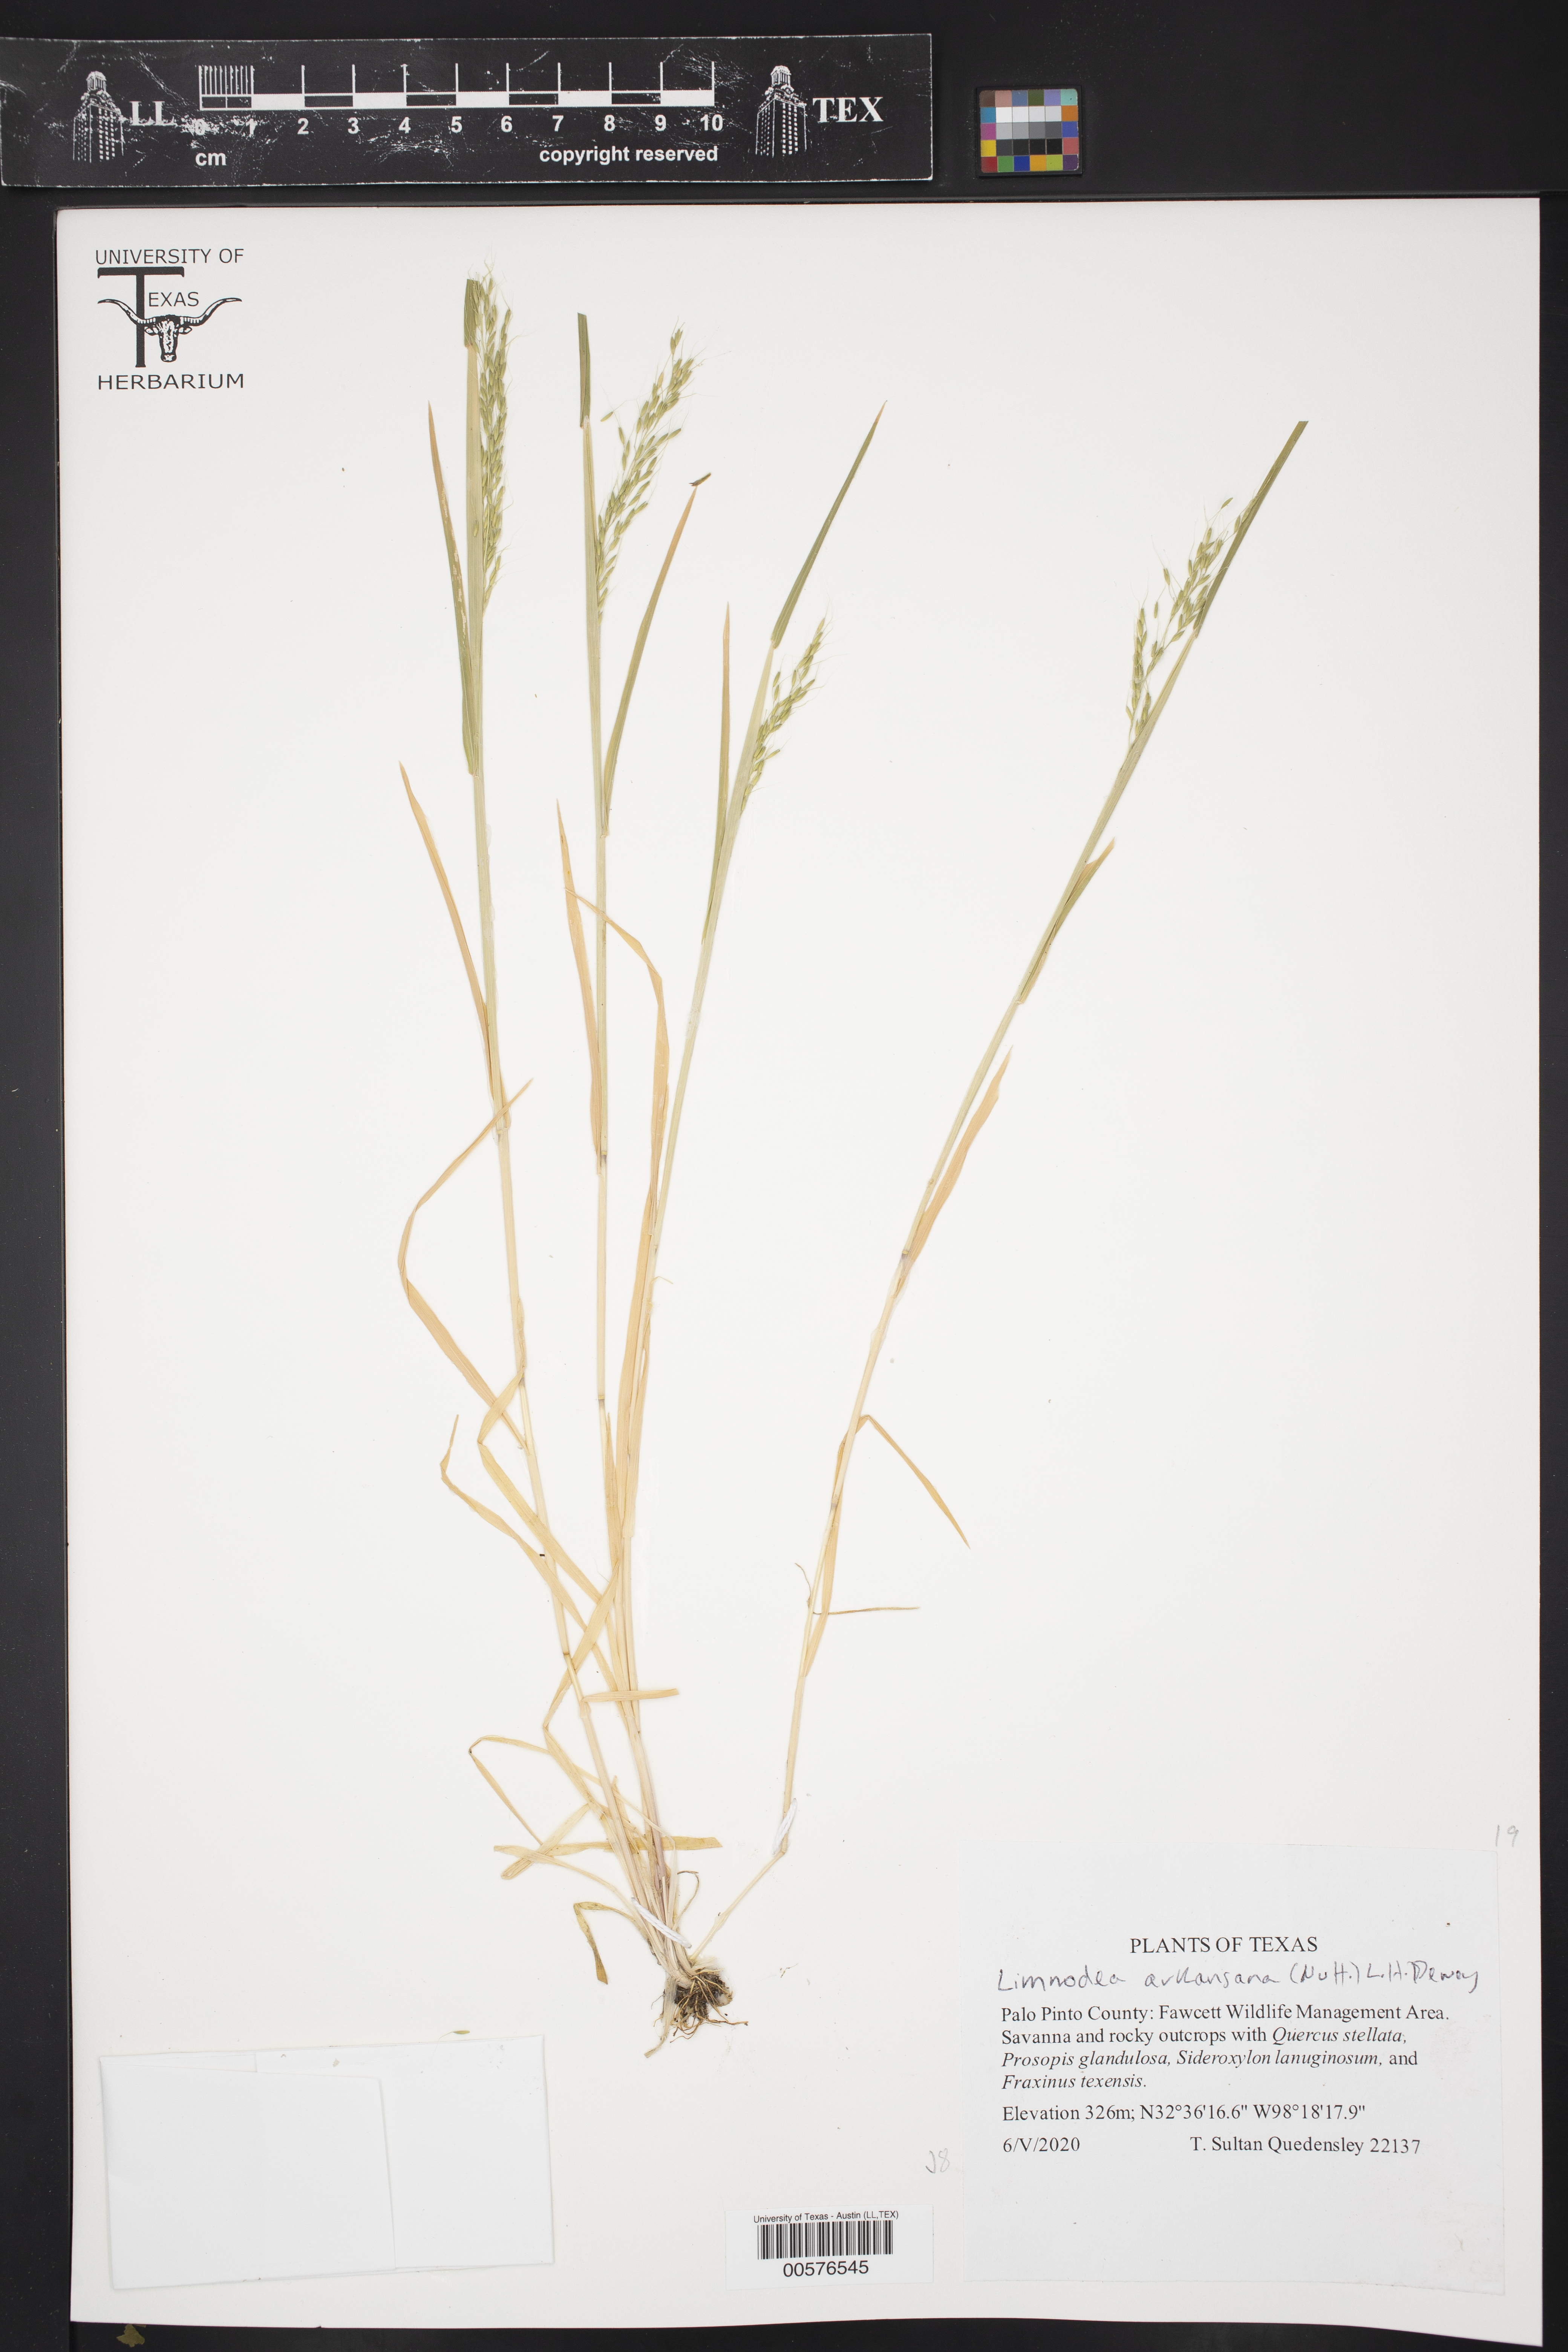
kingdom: Plantae
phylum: Tracheophyta
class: Liliopsida
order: Poales
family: Poaceae
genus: Limnodea
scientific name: Limnodea arkansana
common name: Ozark-grass
